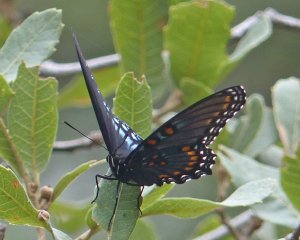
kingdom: Animalia
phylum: Arthropoda
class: Insecta
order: Lepidoptera
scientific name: Lepidoptera
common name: Butterflies
